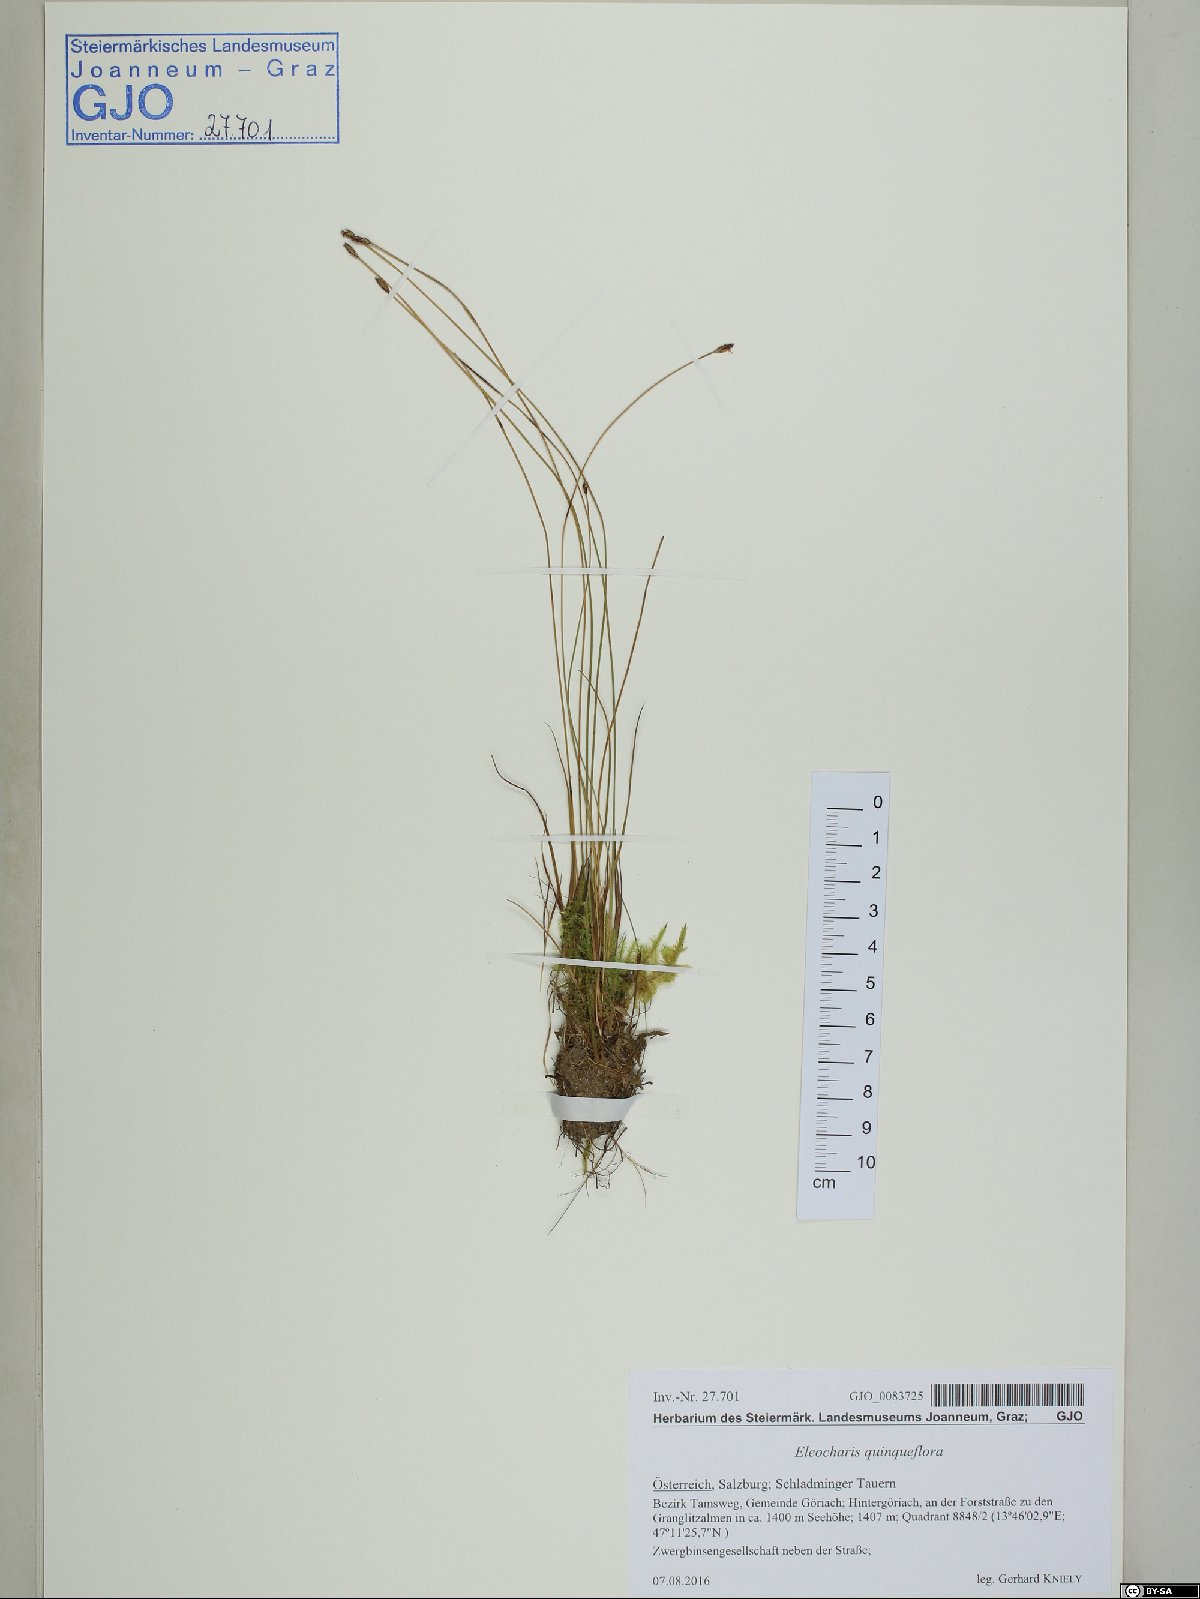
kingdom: Plantae
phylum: Tracheophyta
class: Liliopsida
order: Poales
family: Cyperaceae
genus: Eleocharis
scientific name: Eleocharis quinqueflora
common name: Few-flowered spike-rush
